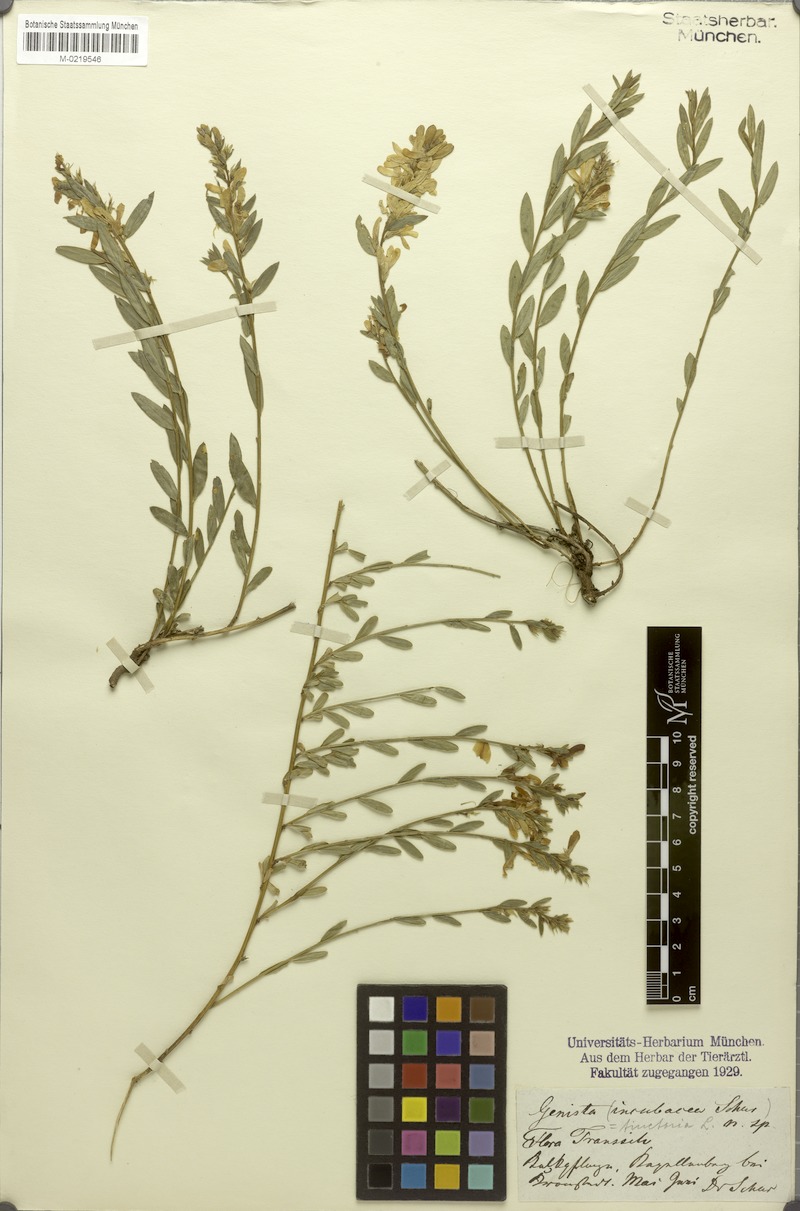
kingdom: Plantae
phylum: Tracheophyta
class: Magnoliopsida
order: Fabales
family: Fabaceae
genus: Genista
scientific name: Genista tinctoria
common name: Dyer's greenweed
